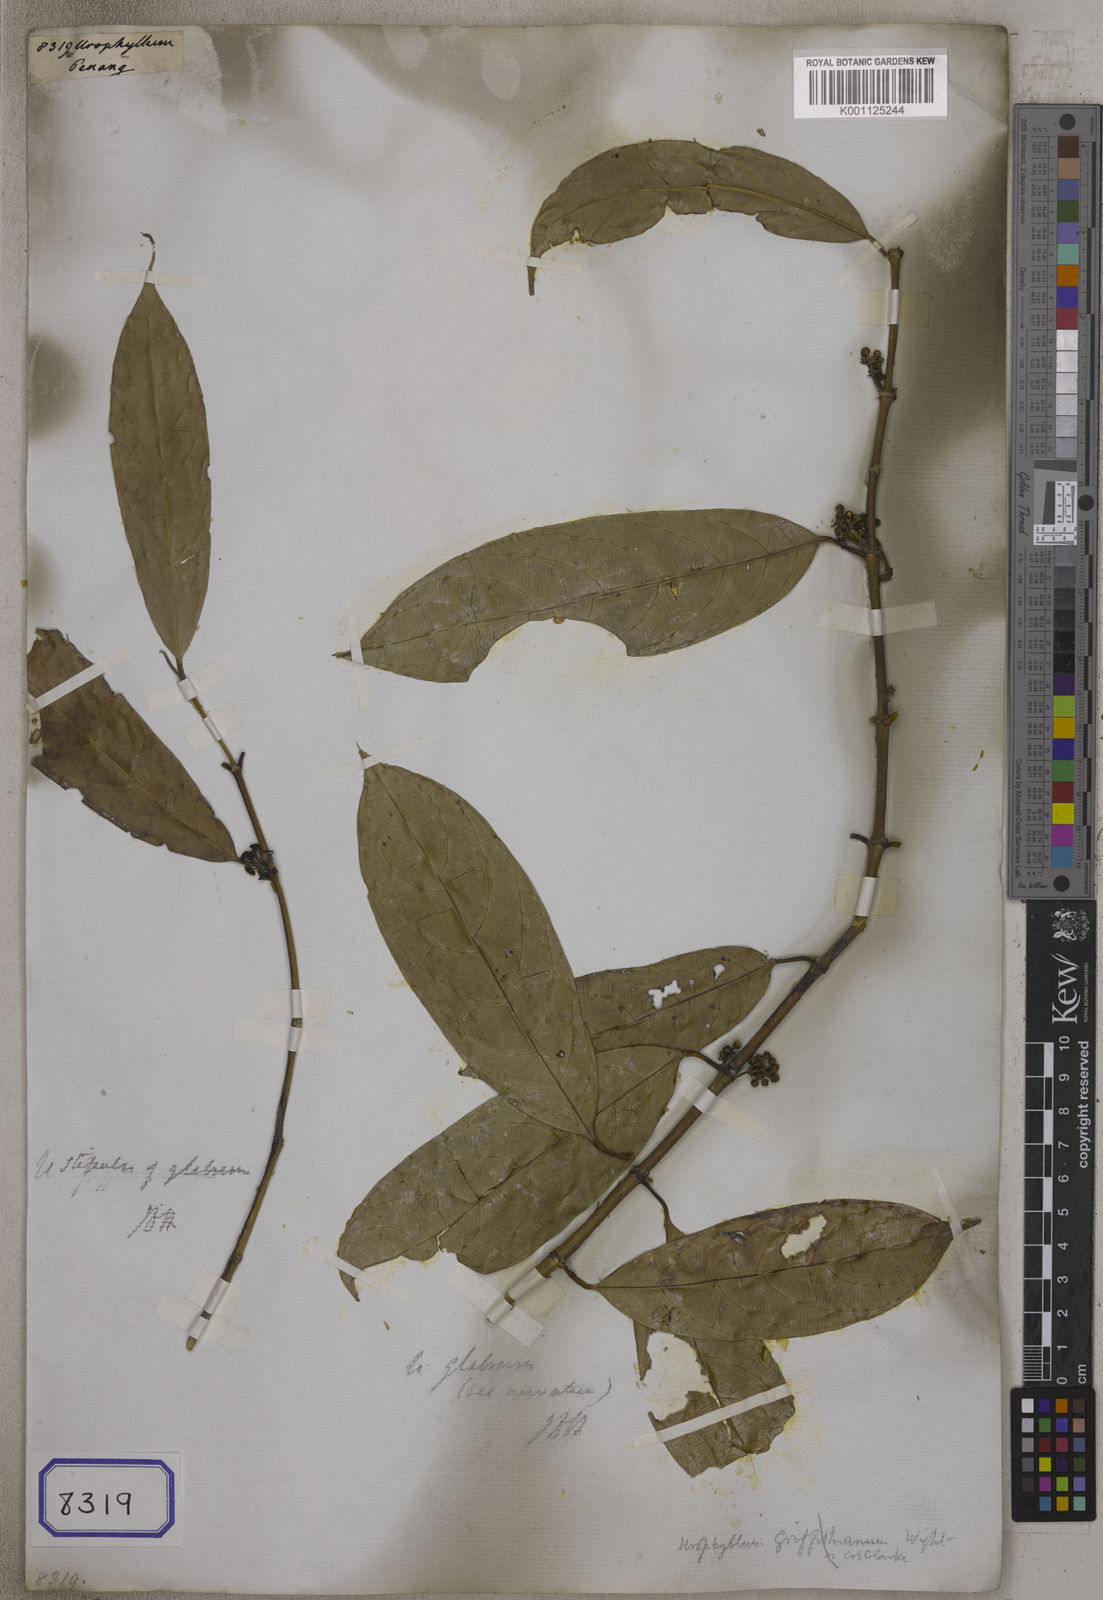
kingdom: Plantae
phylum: Tracheophyta
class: Magnoliopsida
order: Gentianales
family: Rubiaceae
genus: Urophyllum
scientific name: Urophyllum
